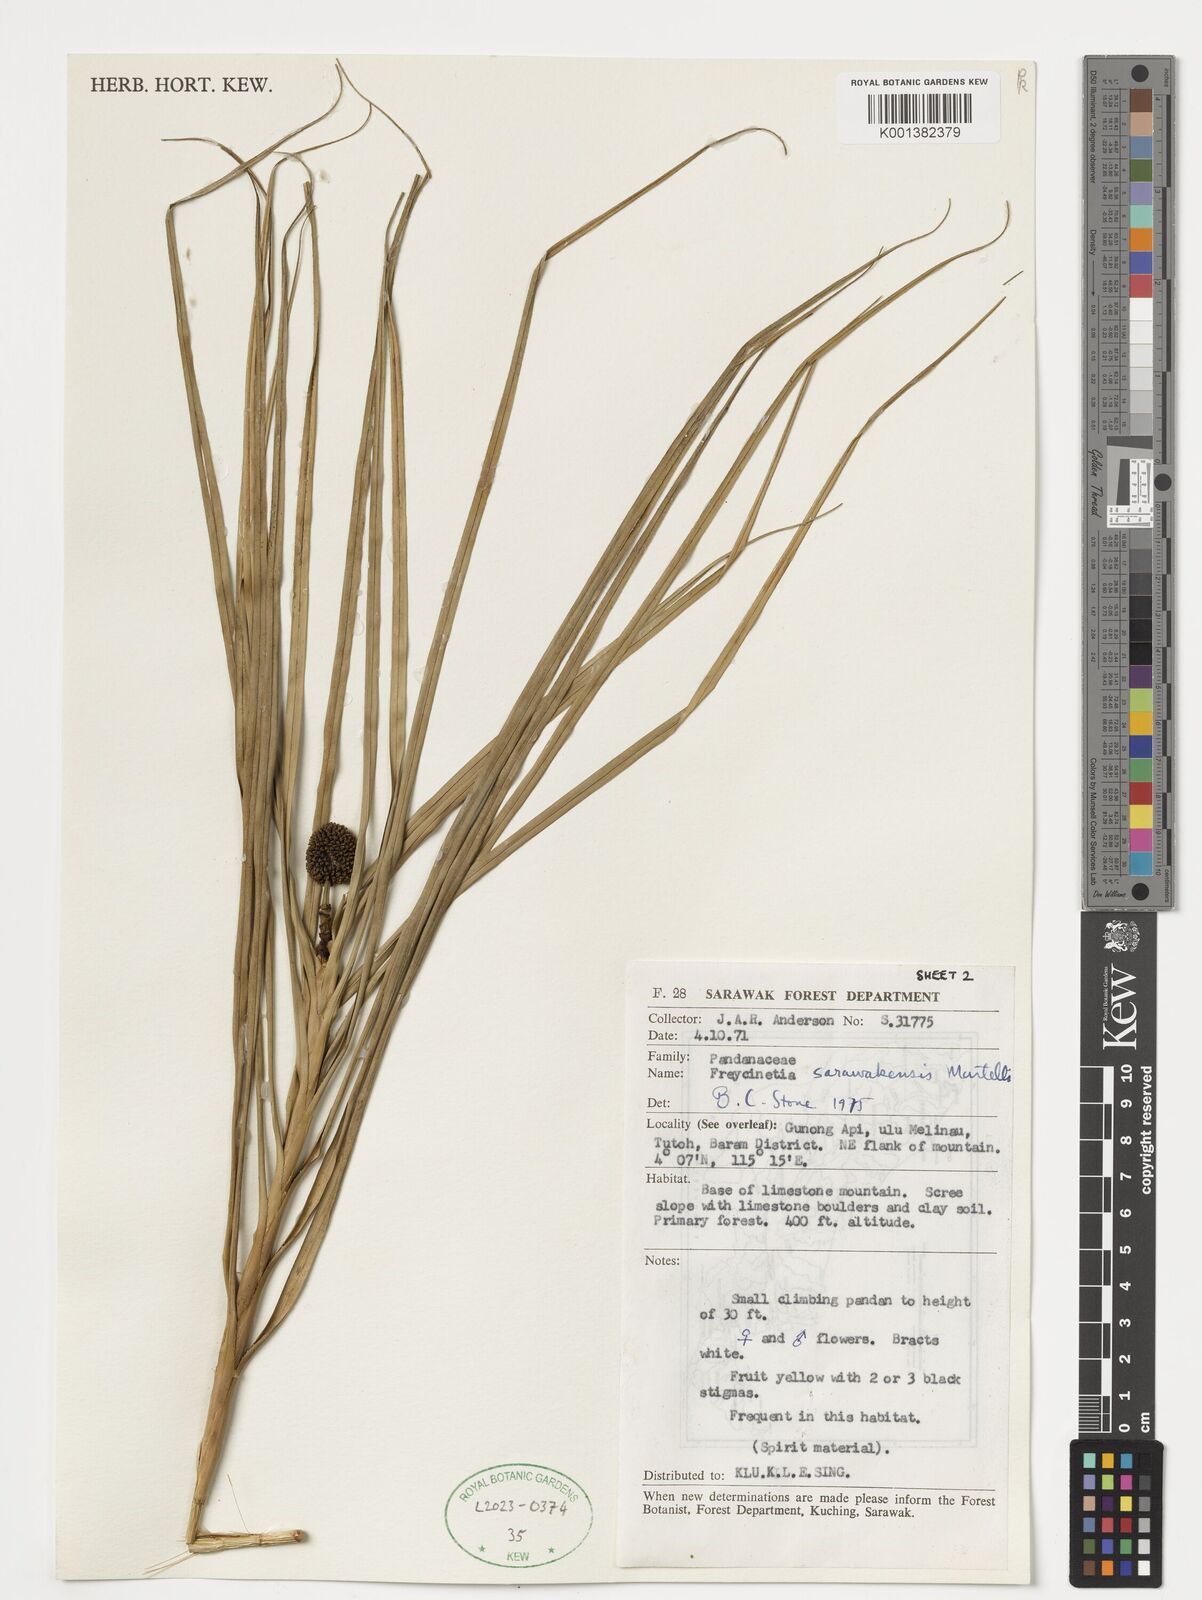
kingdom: Plantae
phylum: Tracheophyta
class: Liliopsida
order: Pandanales
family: Pandanaceae
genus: Freycinetia
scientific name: Freycinetia sarawakensis
